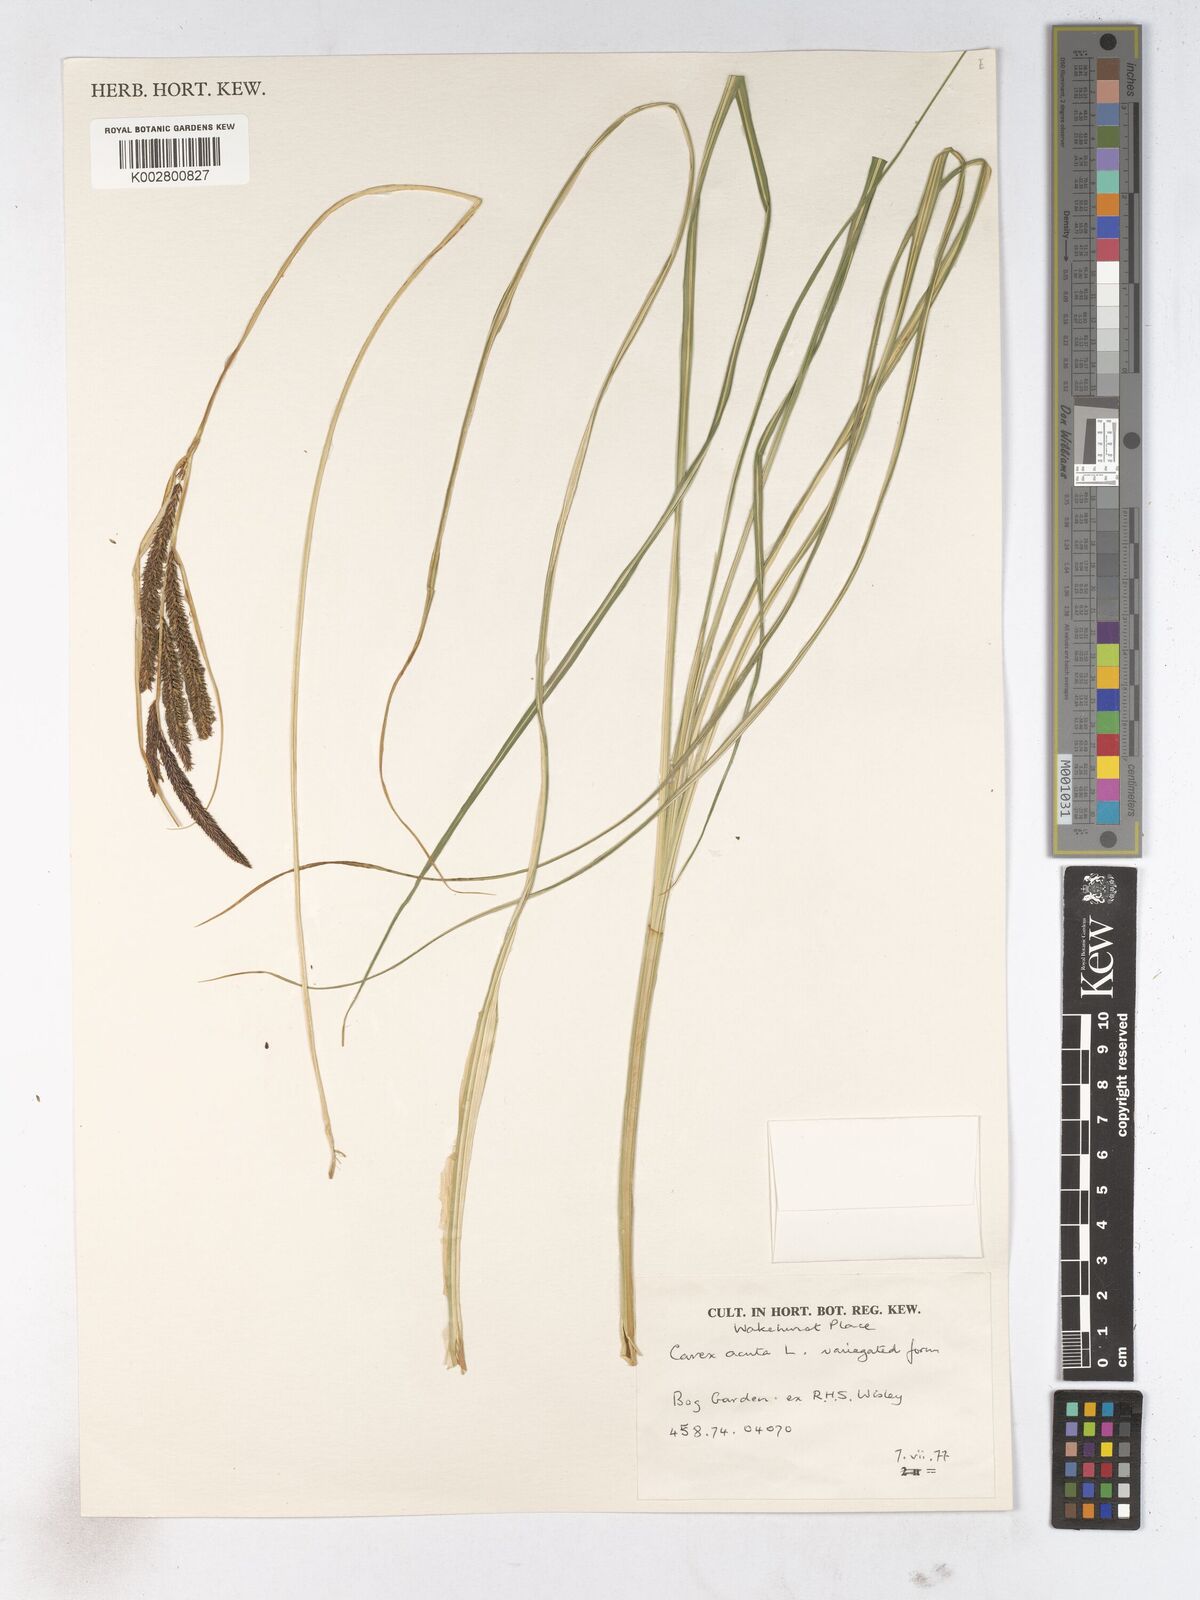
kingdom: Plantae
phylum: Tracheophyta
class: Liliopsida
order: Poales
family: Cyperaceae
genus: Carex
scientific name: Carex acuta
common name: Slender tufted-sedge
